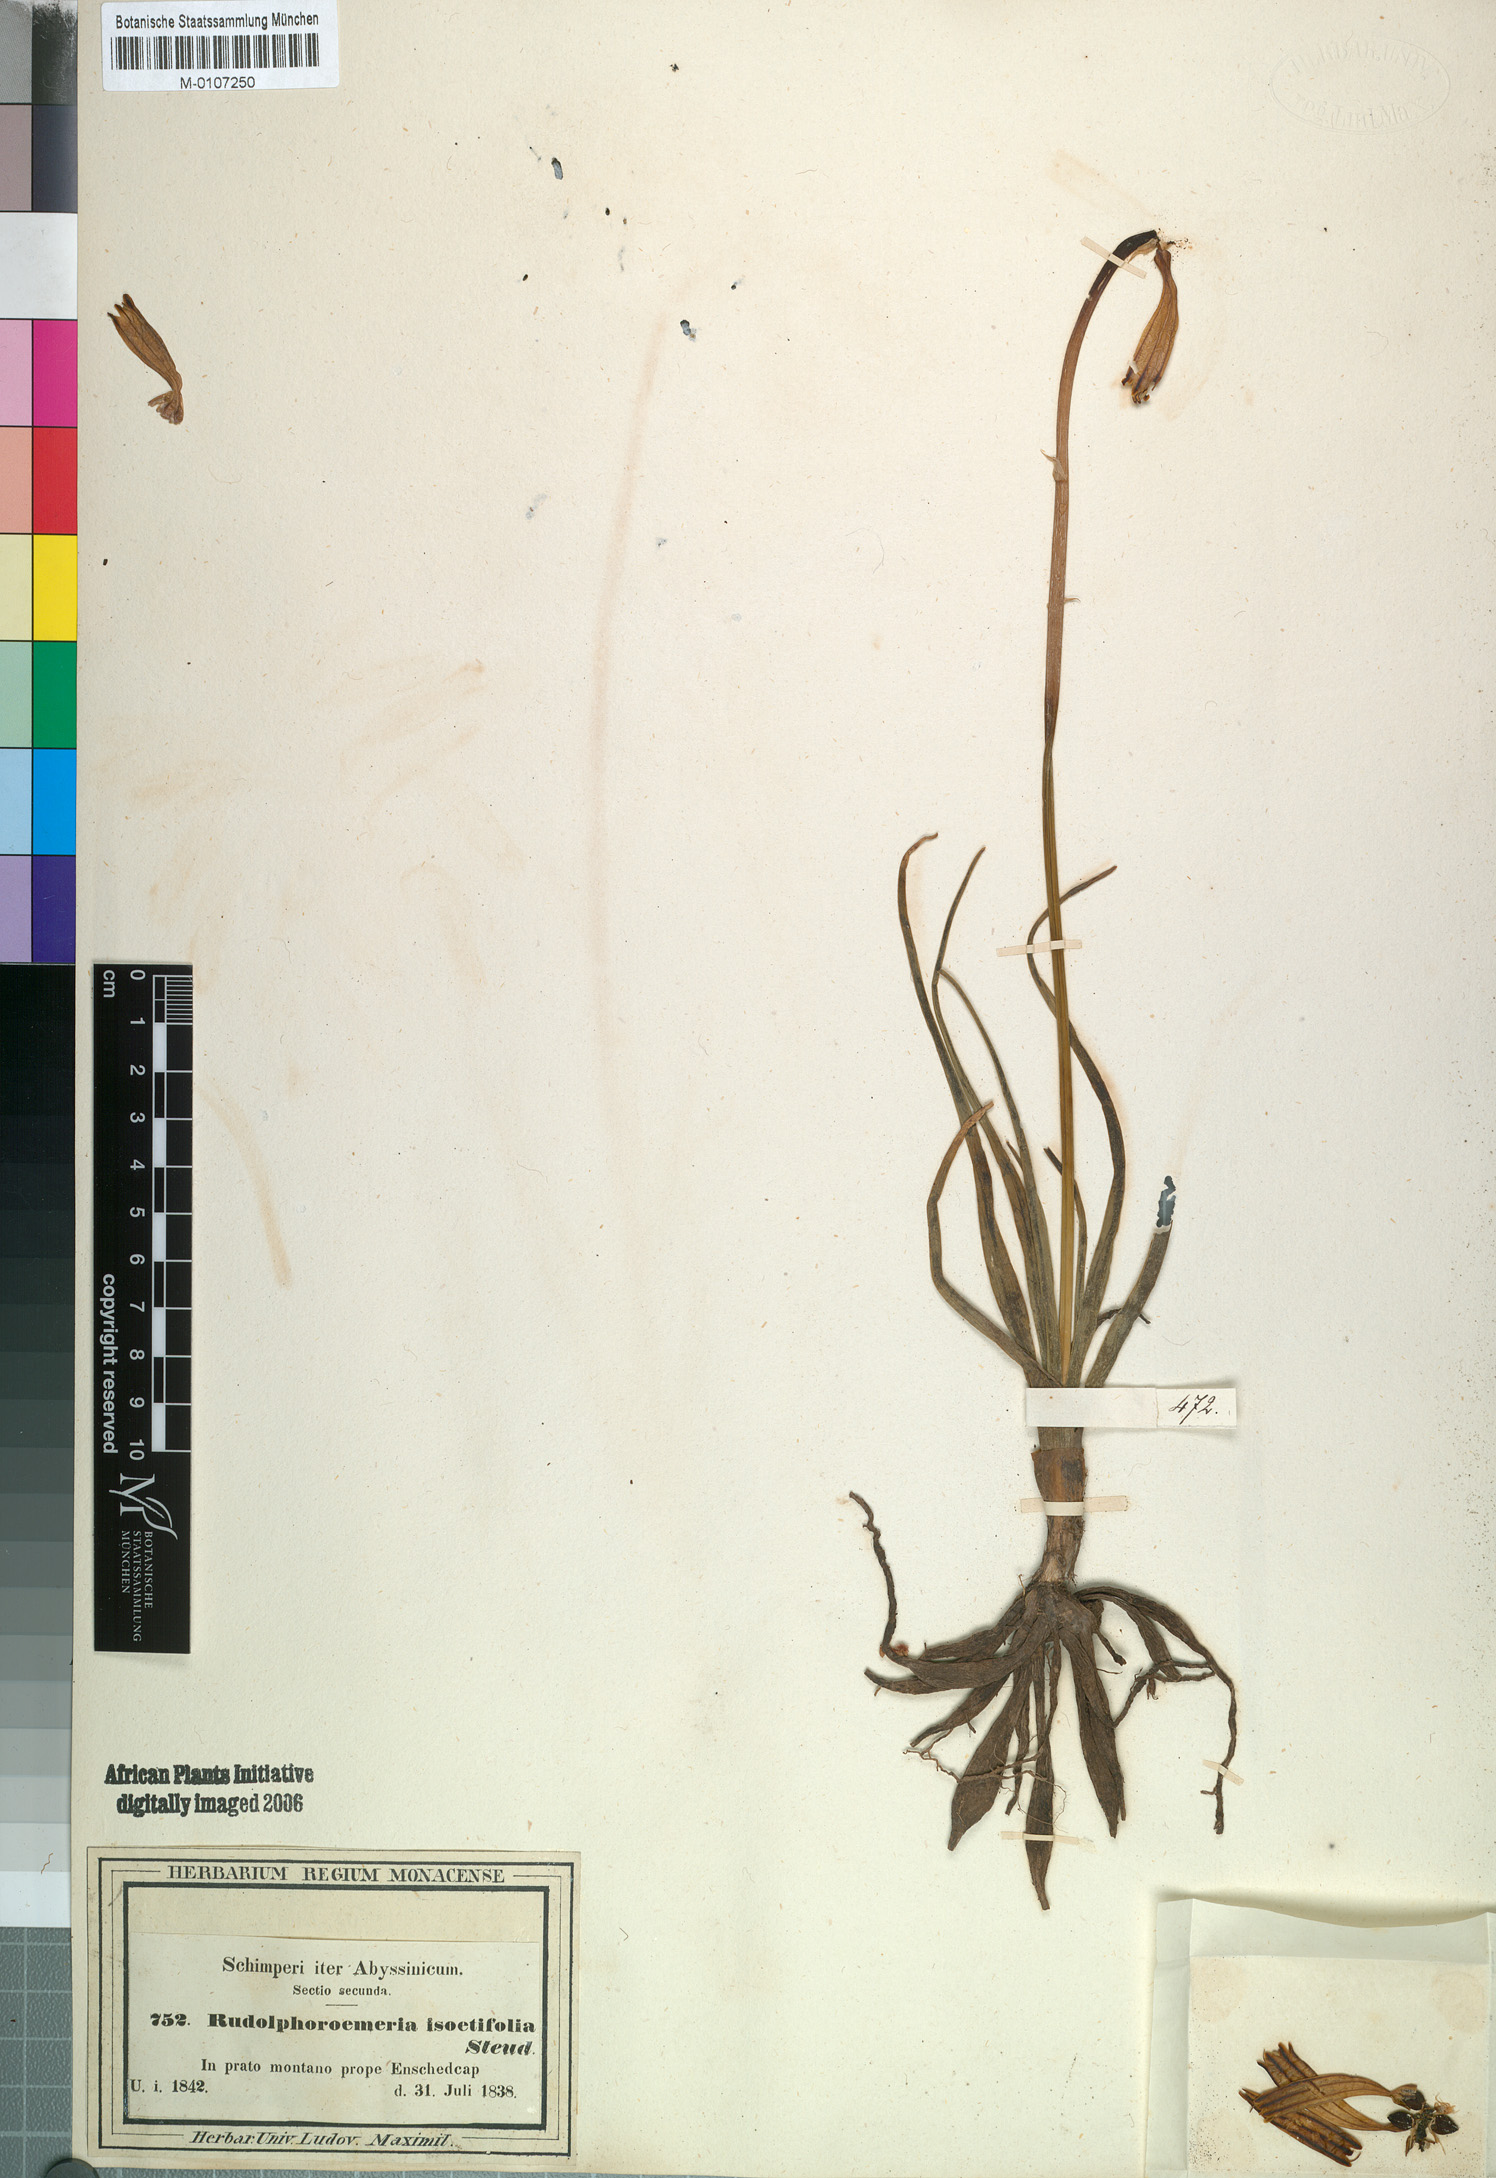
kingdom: Plantae
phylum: Tracheophyta
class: Liliopsida
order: Asparagales
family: Asphodelaceae
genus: Kniphofia
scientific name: Kniphofia isoetifolia
